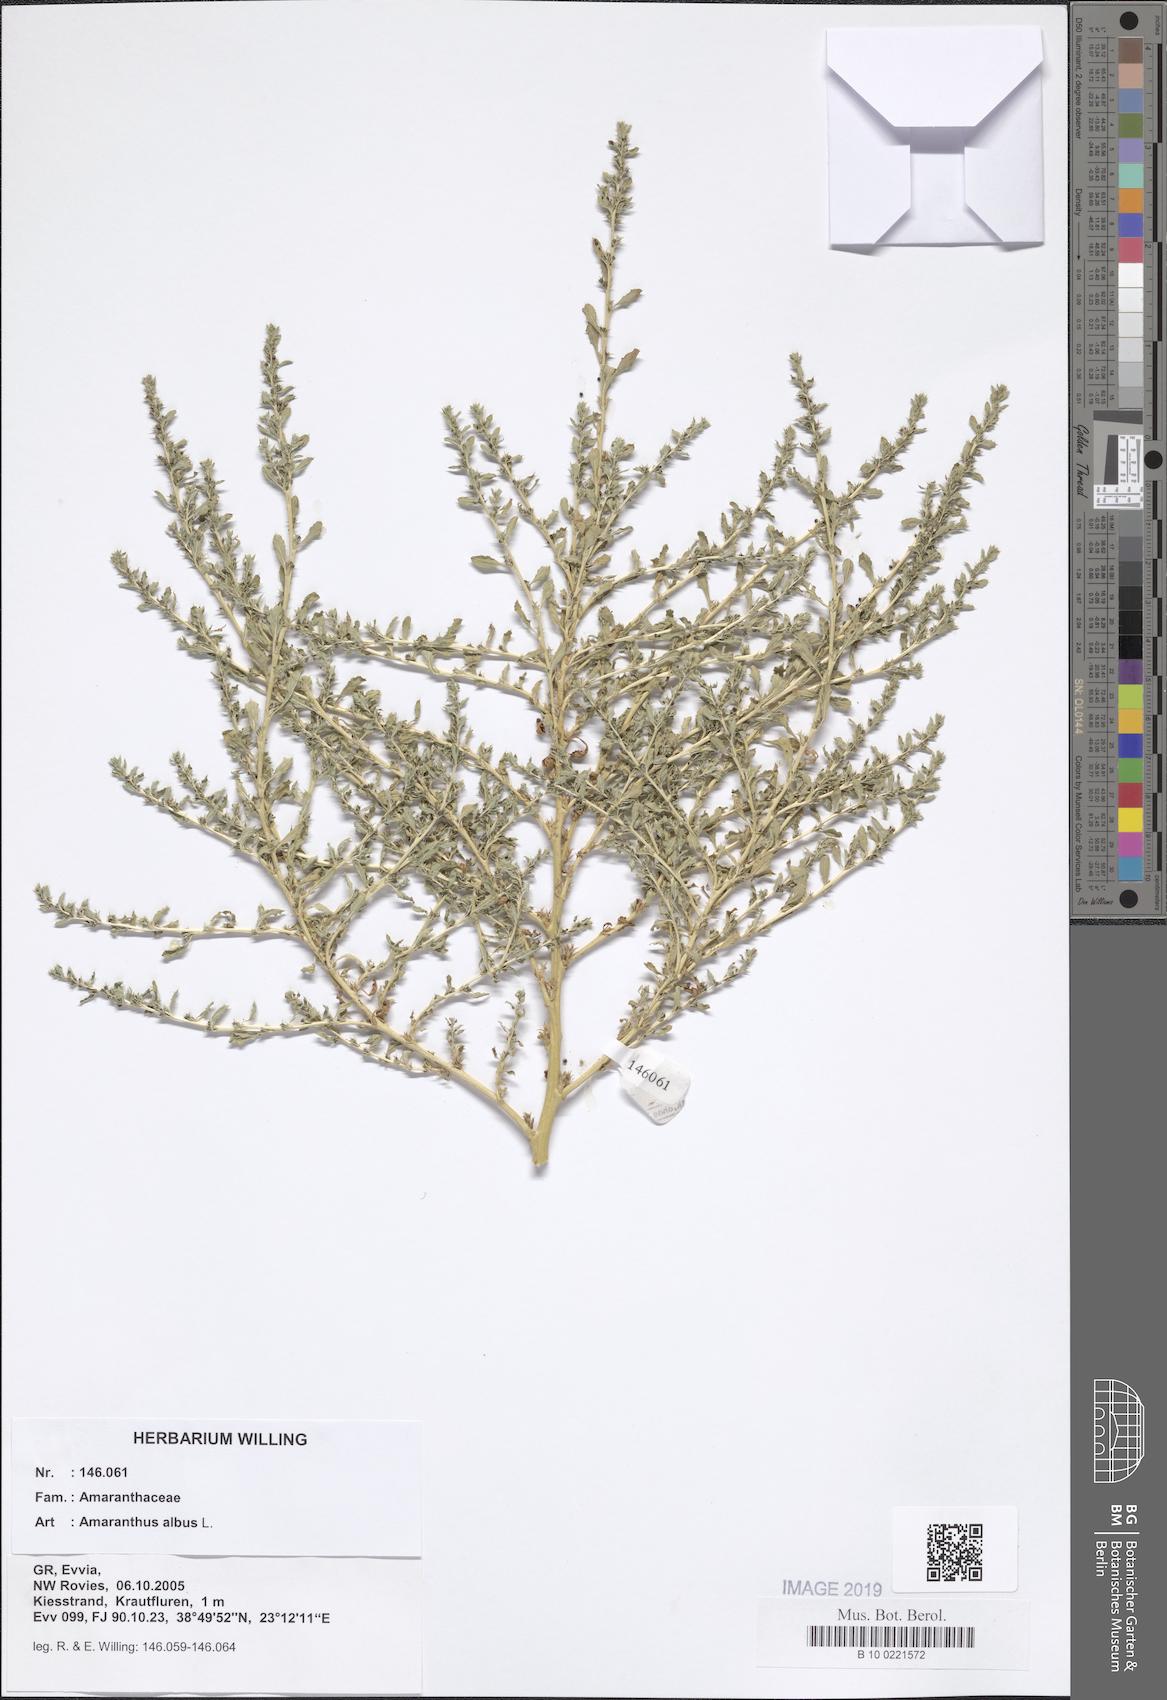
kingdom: Plantae
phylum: Tracheophyta
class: Magnoliopsida
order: Caryophyllales
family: Amaranthaceae
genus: Amaranthus
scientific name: Amaranthus albus
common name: White pigweed
